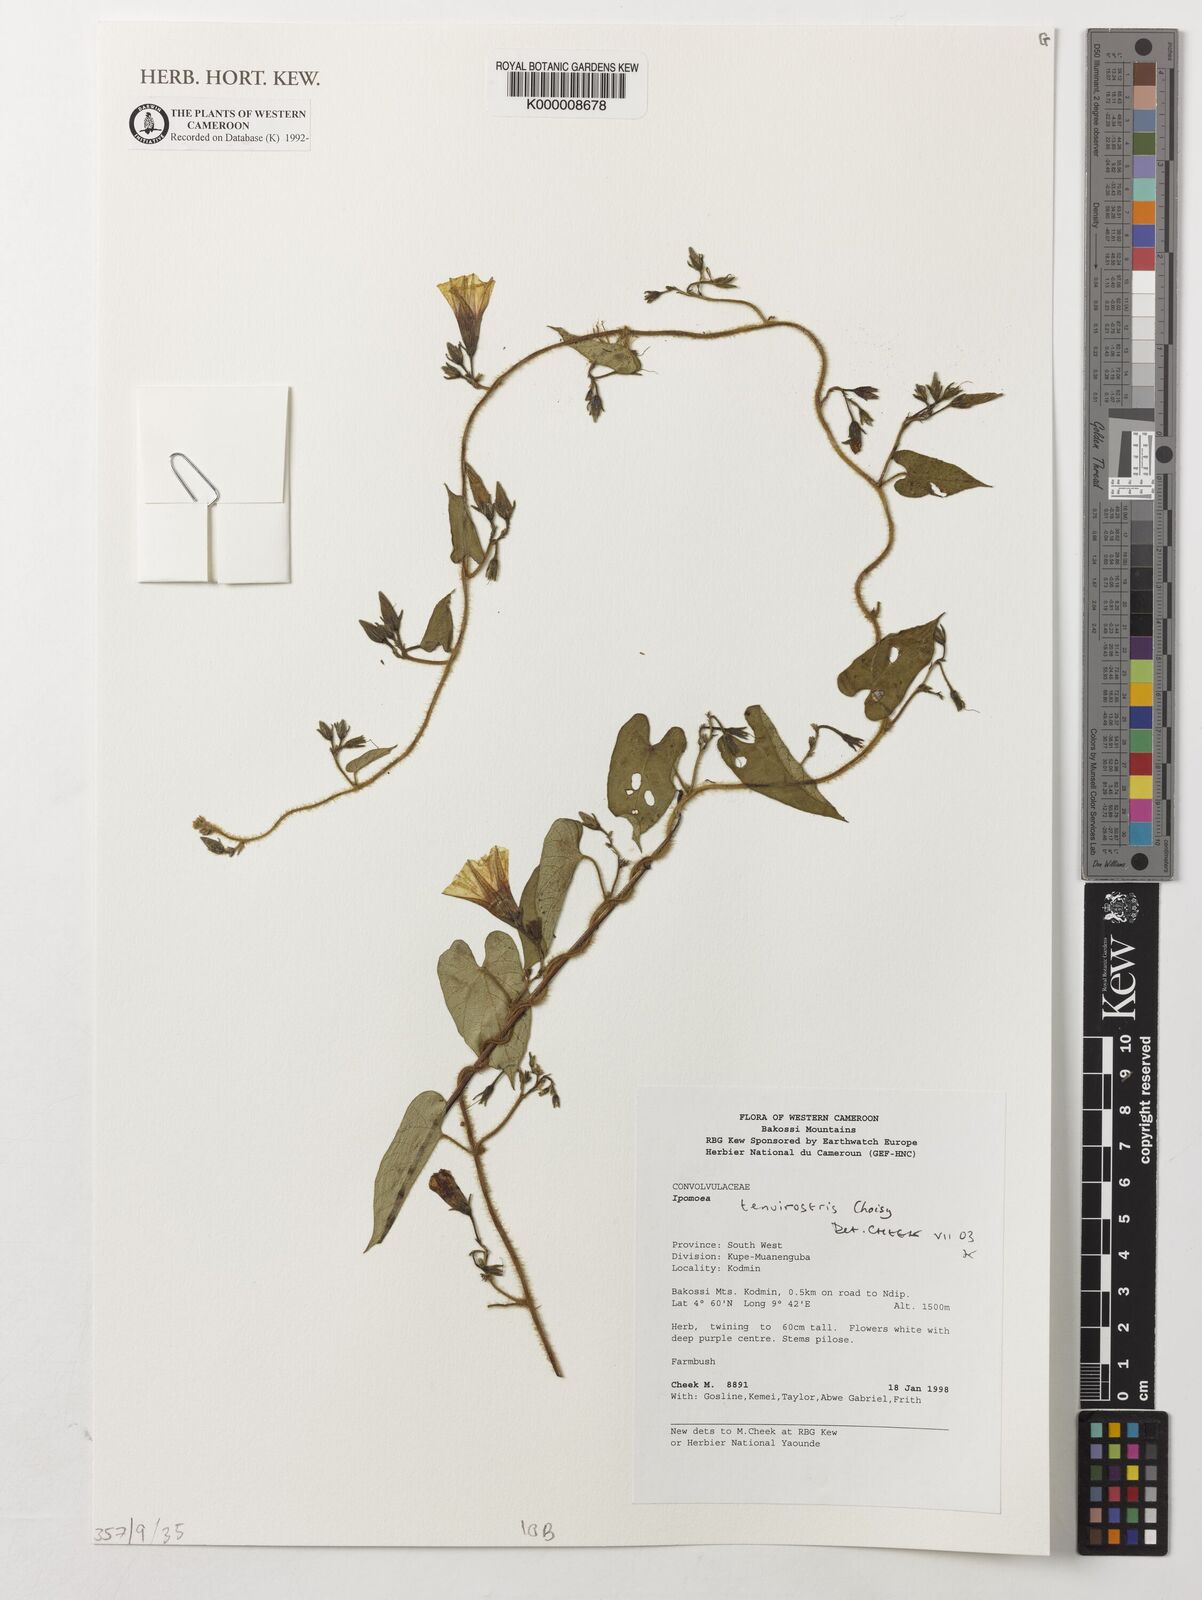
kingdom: Plantae
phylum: Tracheophyta
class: Magnoliopsida
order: Solanales
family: Convolvulaceae
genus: Ipomoea
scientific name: Ipomoea tenuirostris
